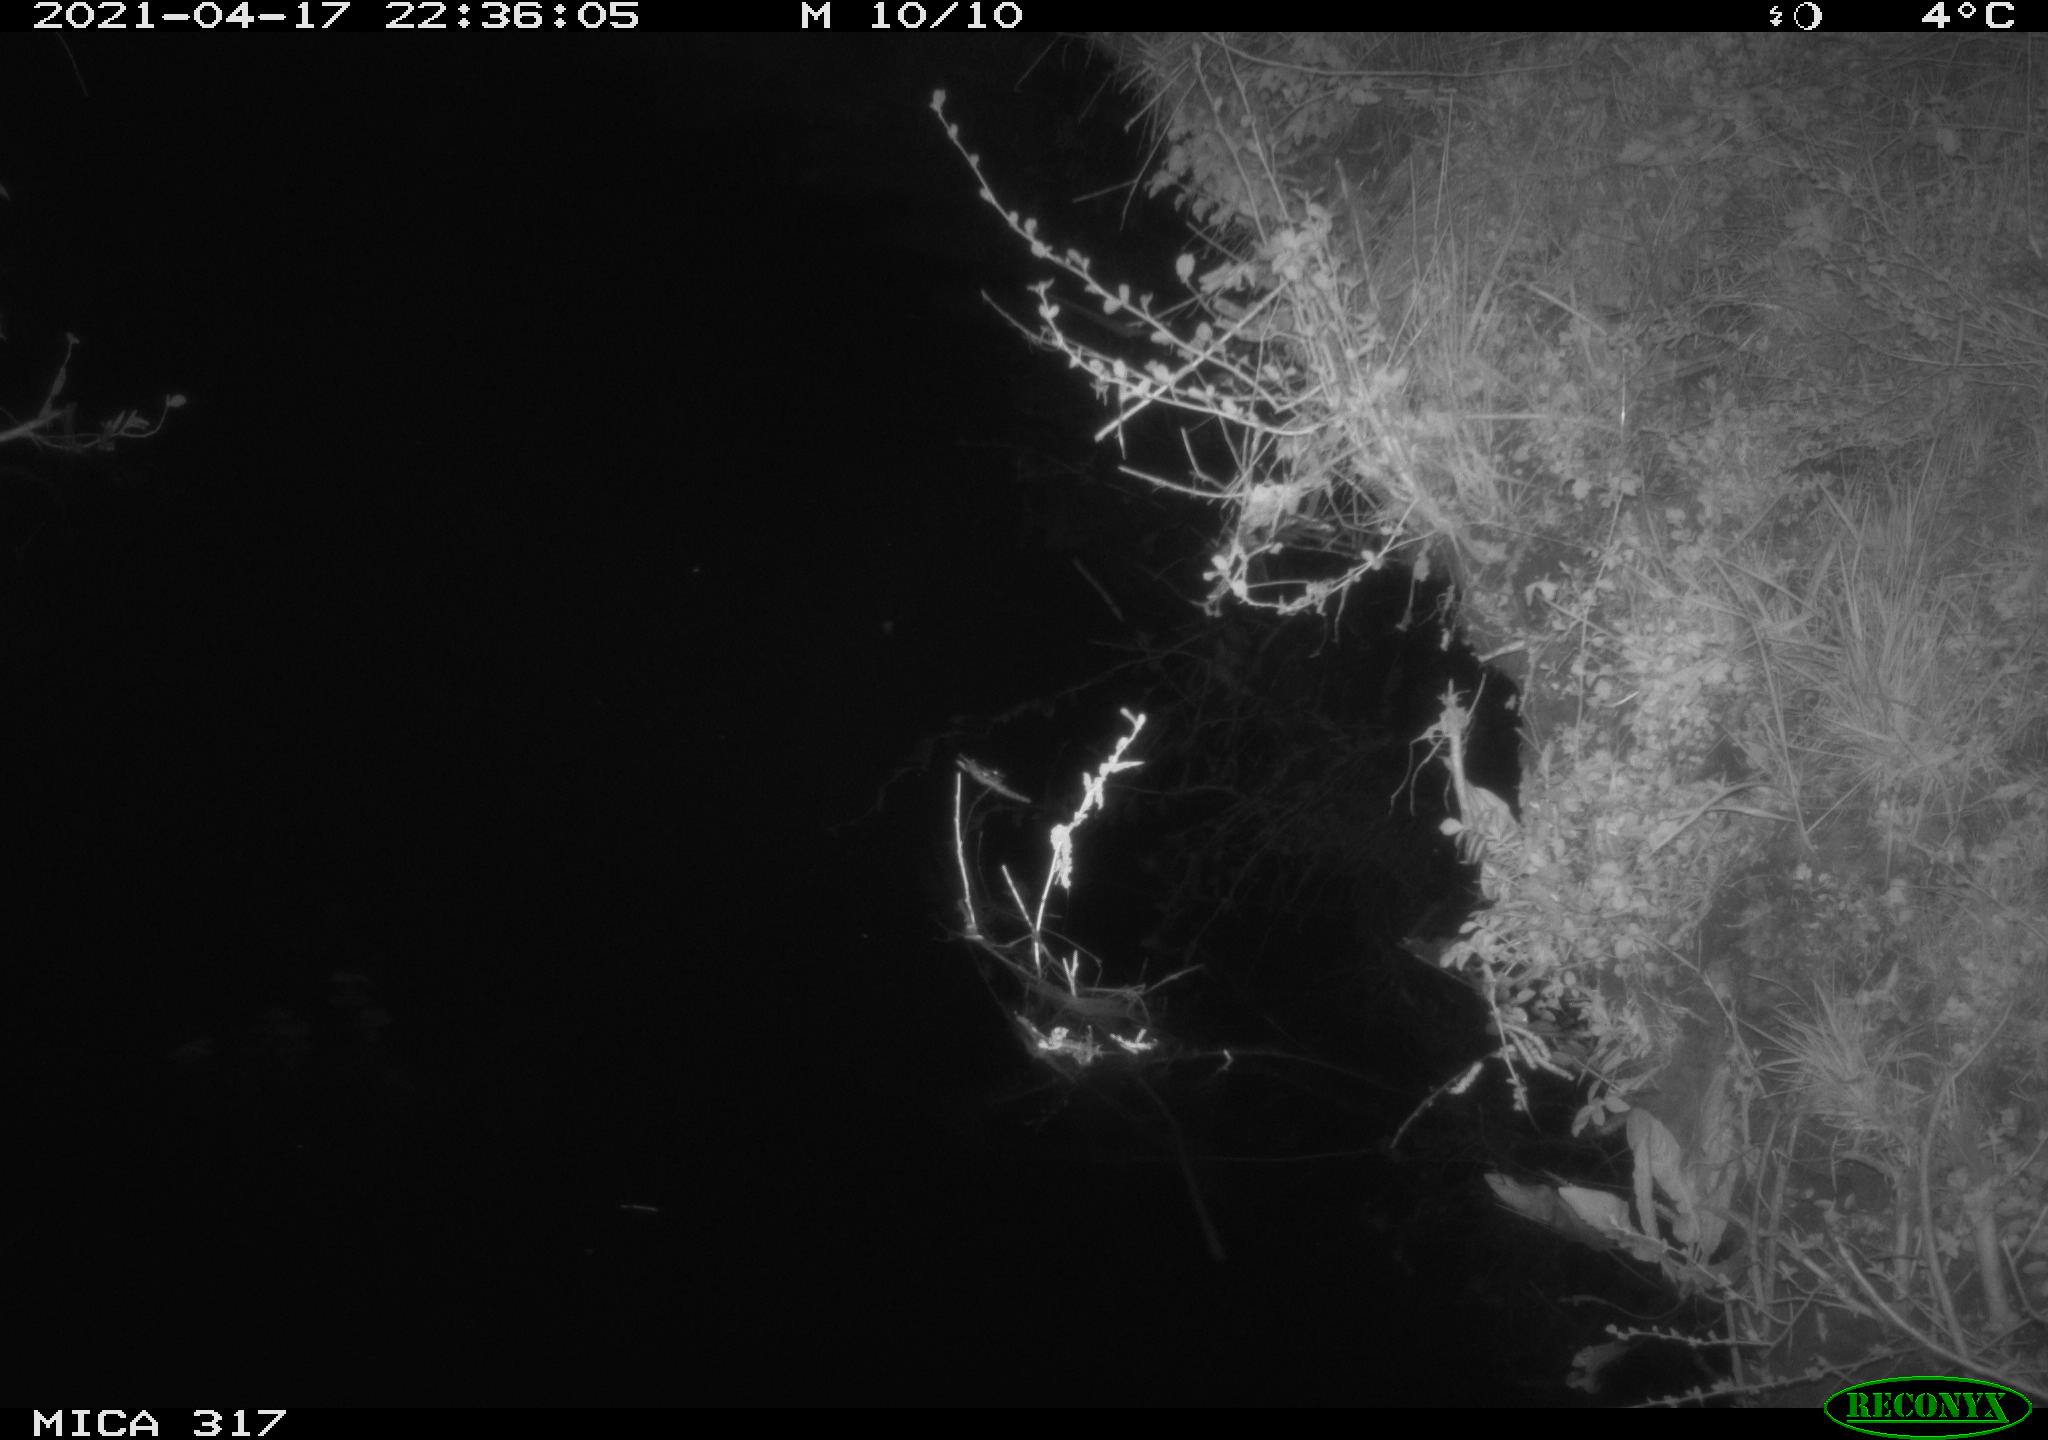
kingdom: Animalia
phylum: Chordata
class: Aves
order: Anseriformes
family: Anatidae
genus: Anas
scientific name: Anas platyrhynchos
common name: Mallard
